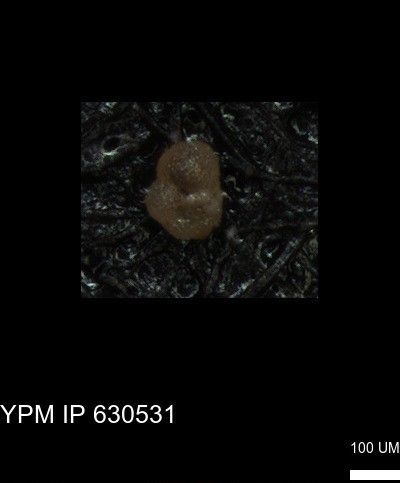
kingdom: Chromista
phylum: Foraminifera
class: Globothalamea
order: Rotaliida
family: Rugoglobigerinidae
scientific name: Rugoglobigerinidae
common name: forams
